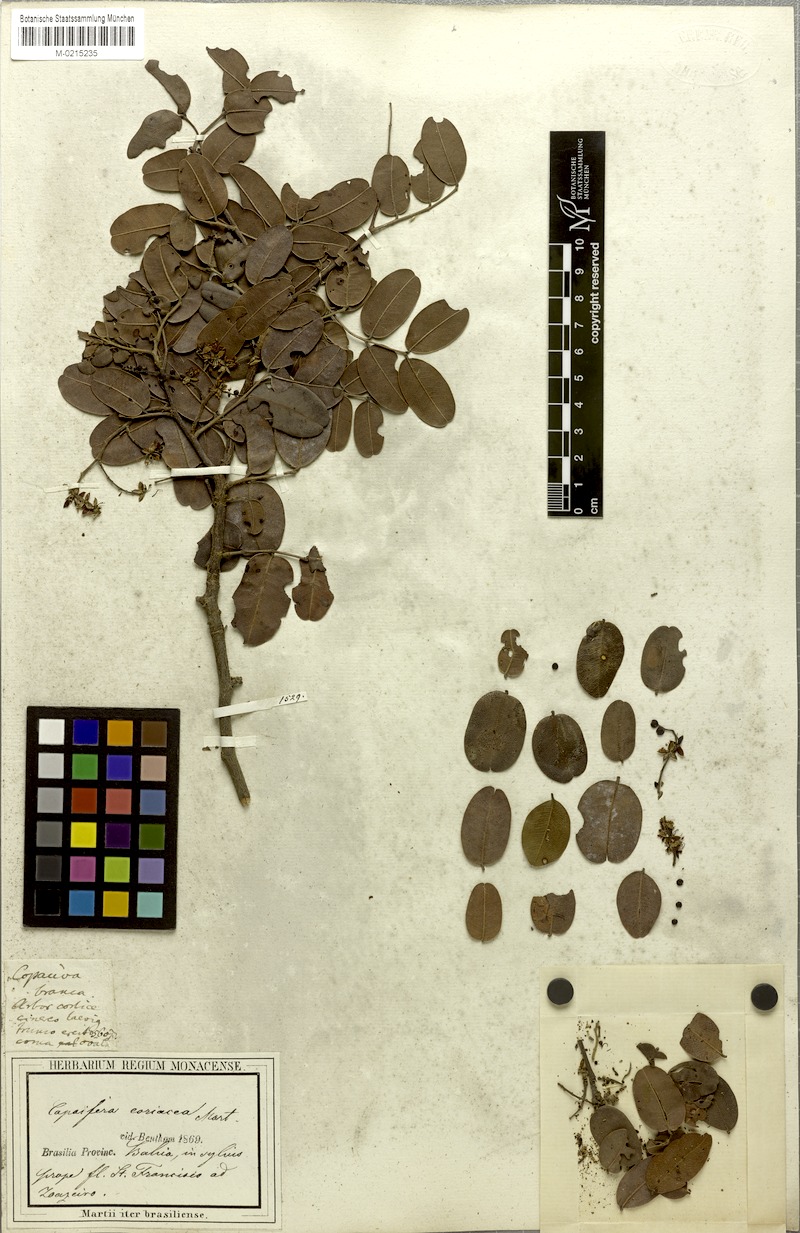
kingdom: Plantae
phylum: Tracheophyta
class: Magnoliopsida
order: Fabales
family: Fabaceae
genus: Copaifera
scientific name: Copaifera coriacea
